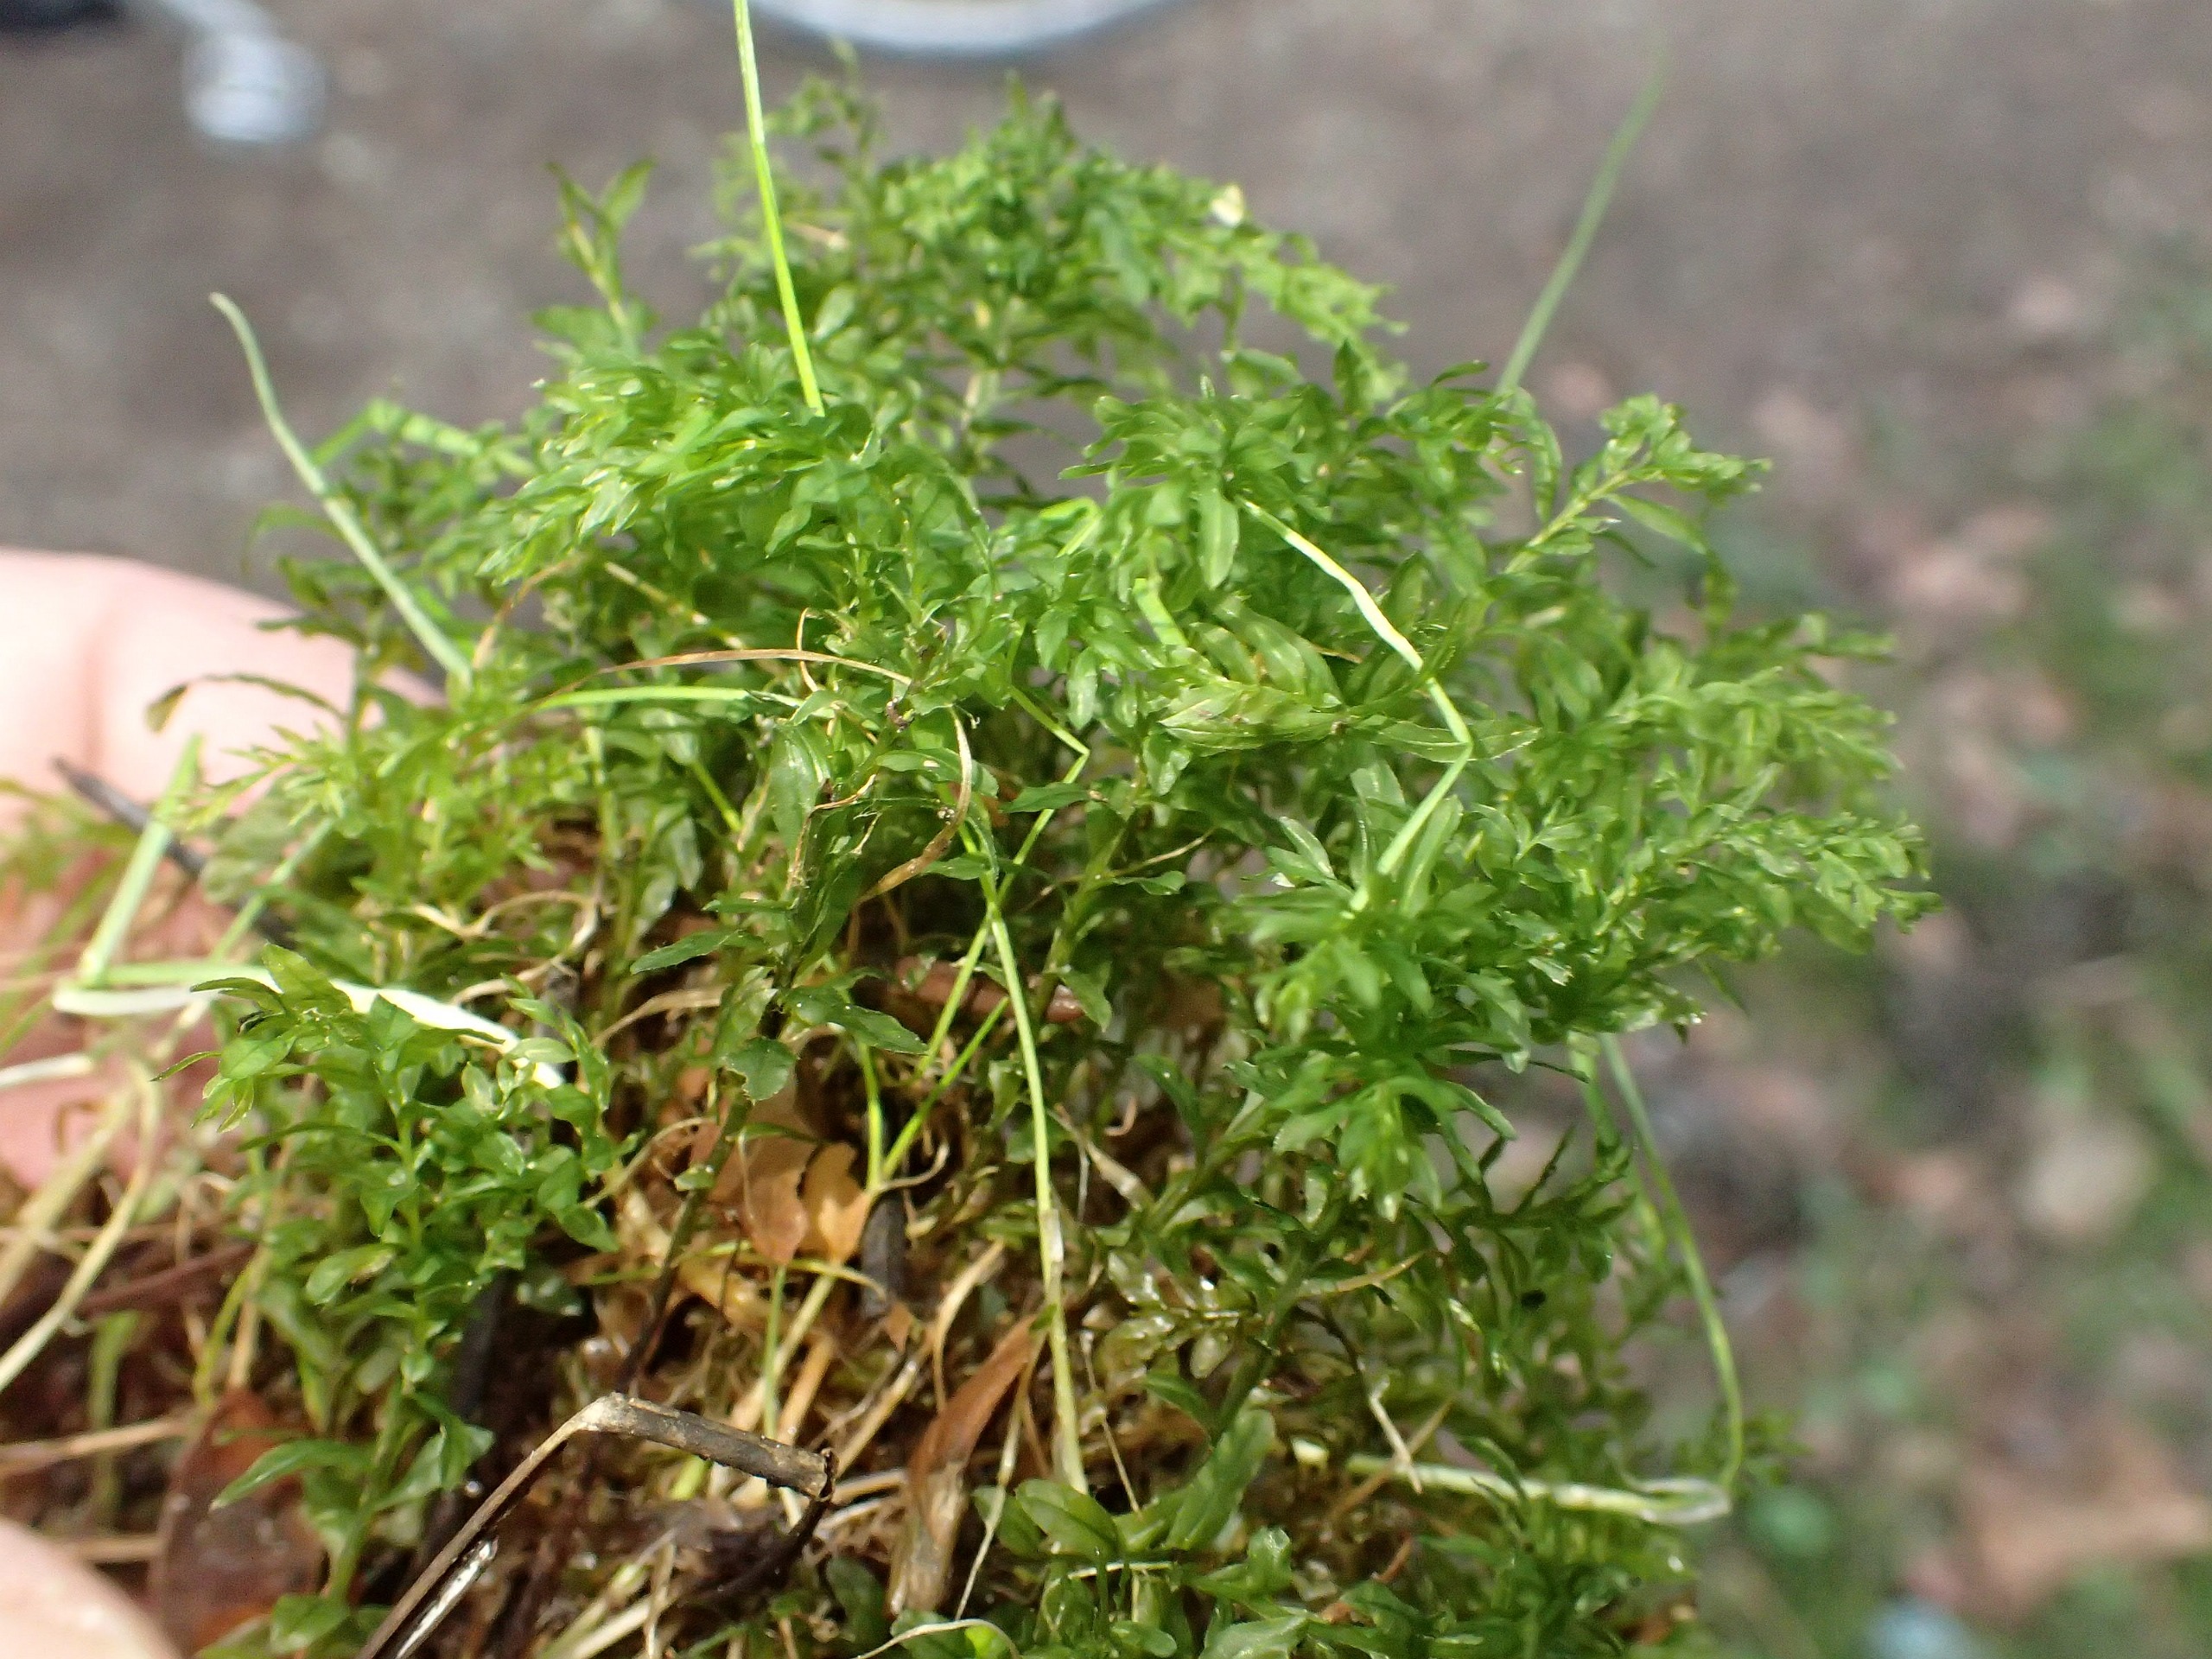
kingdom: Plantae
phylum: Bryophyta
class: Bryopsida
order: Bryales
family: Mniaceae
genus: Plagiomnium
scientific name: Plagiomnium undulatum
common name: Bølget krybstjerne
